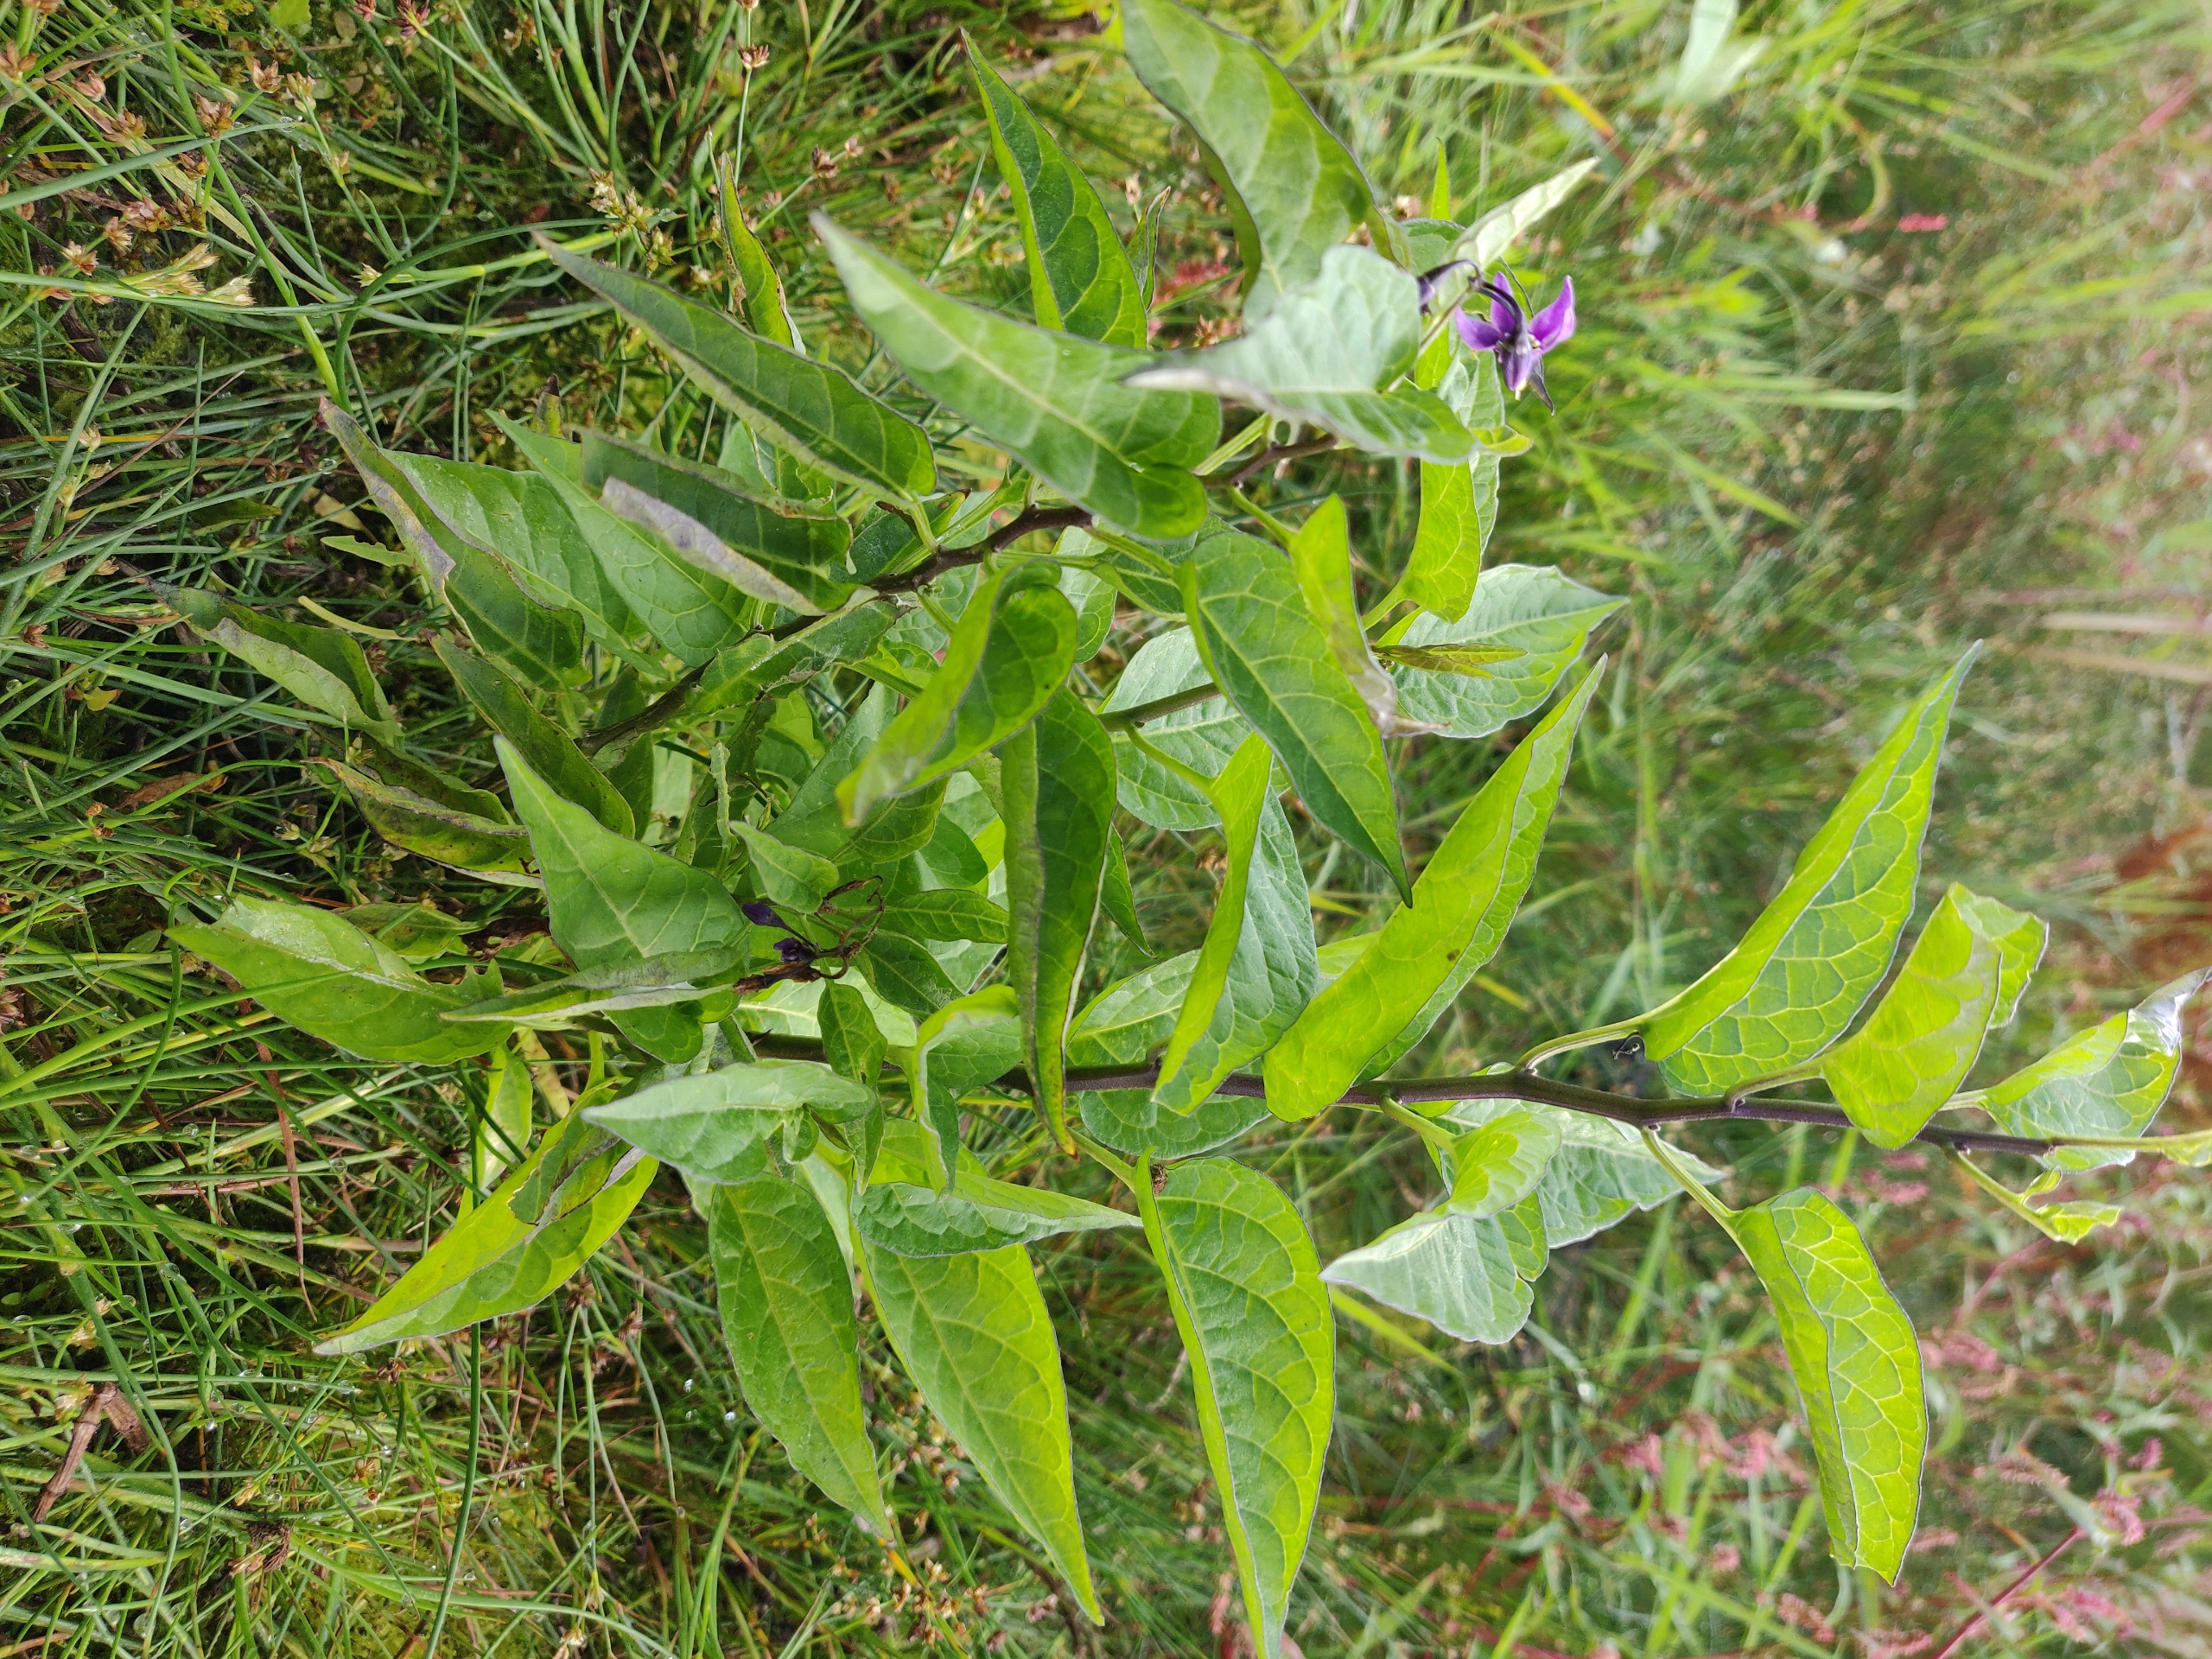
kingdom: Plantae
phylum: Tracheophyta
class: Magnoliopsida
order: Solanales
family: Solanaceae
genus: Solanum
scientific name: Solanum dulcamara
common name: Bittersød natskygge (varietet)
